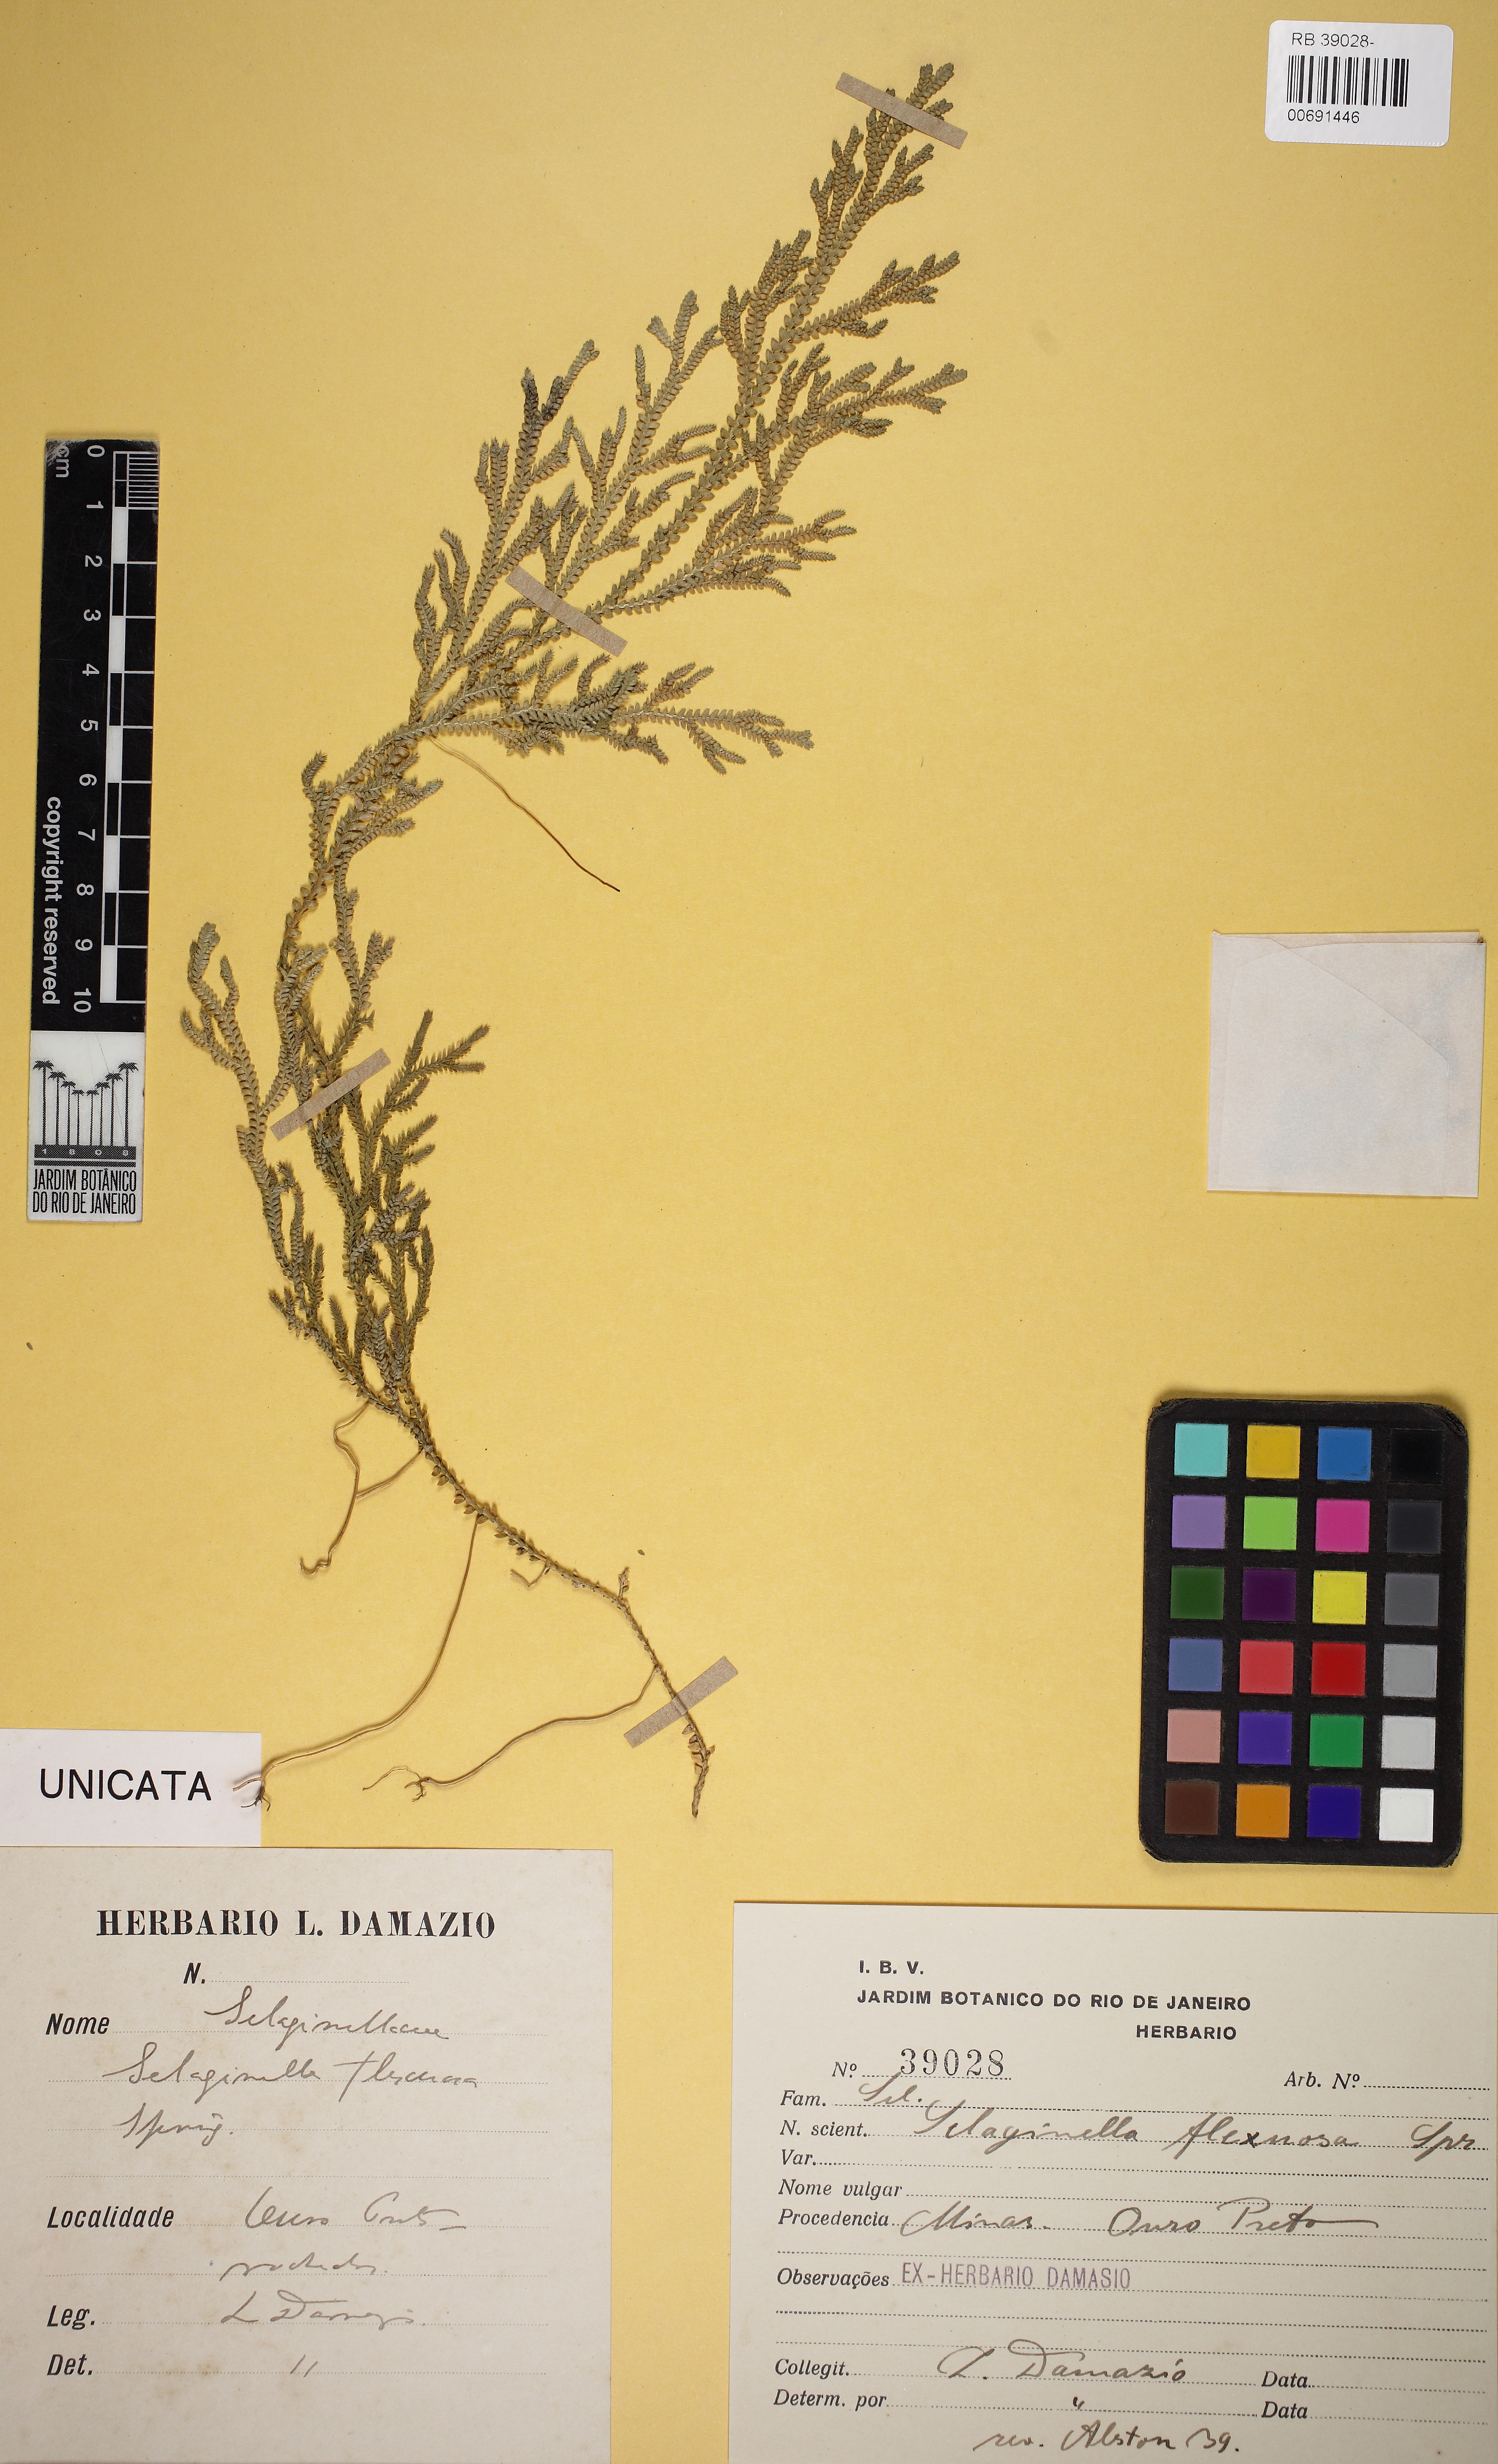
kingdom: Plantae
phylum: Tracheophyta
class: Lycopodiopsida
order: Selaginellales
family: Selaginellaceae
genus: Selaginella
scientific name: Selaginella flexuosa
